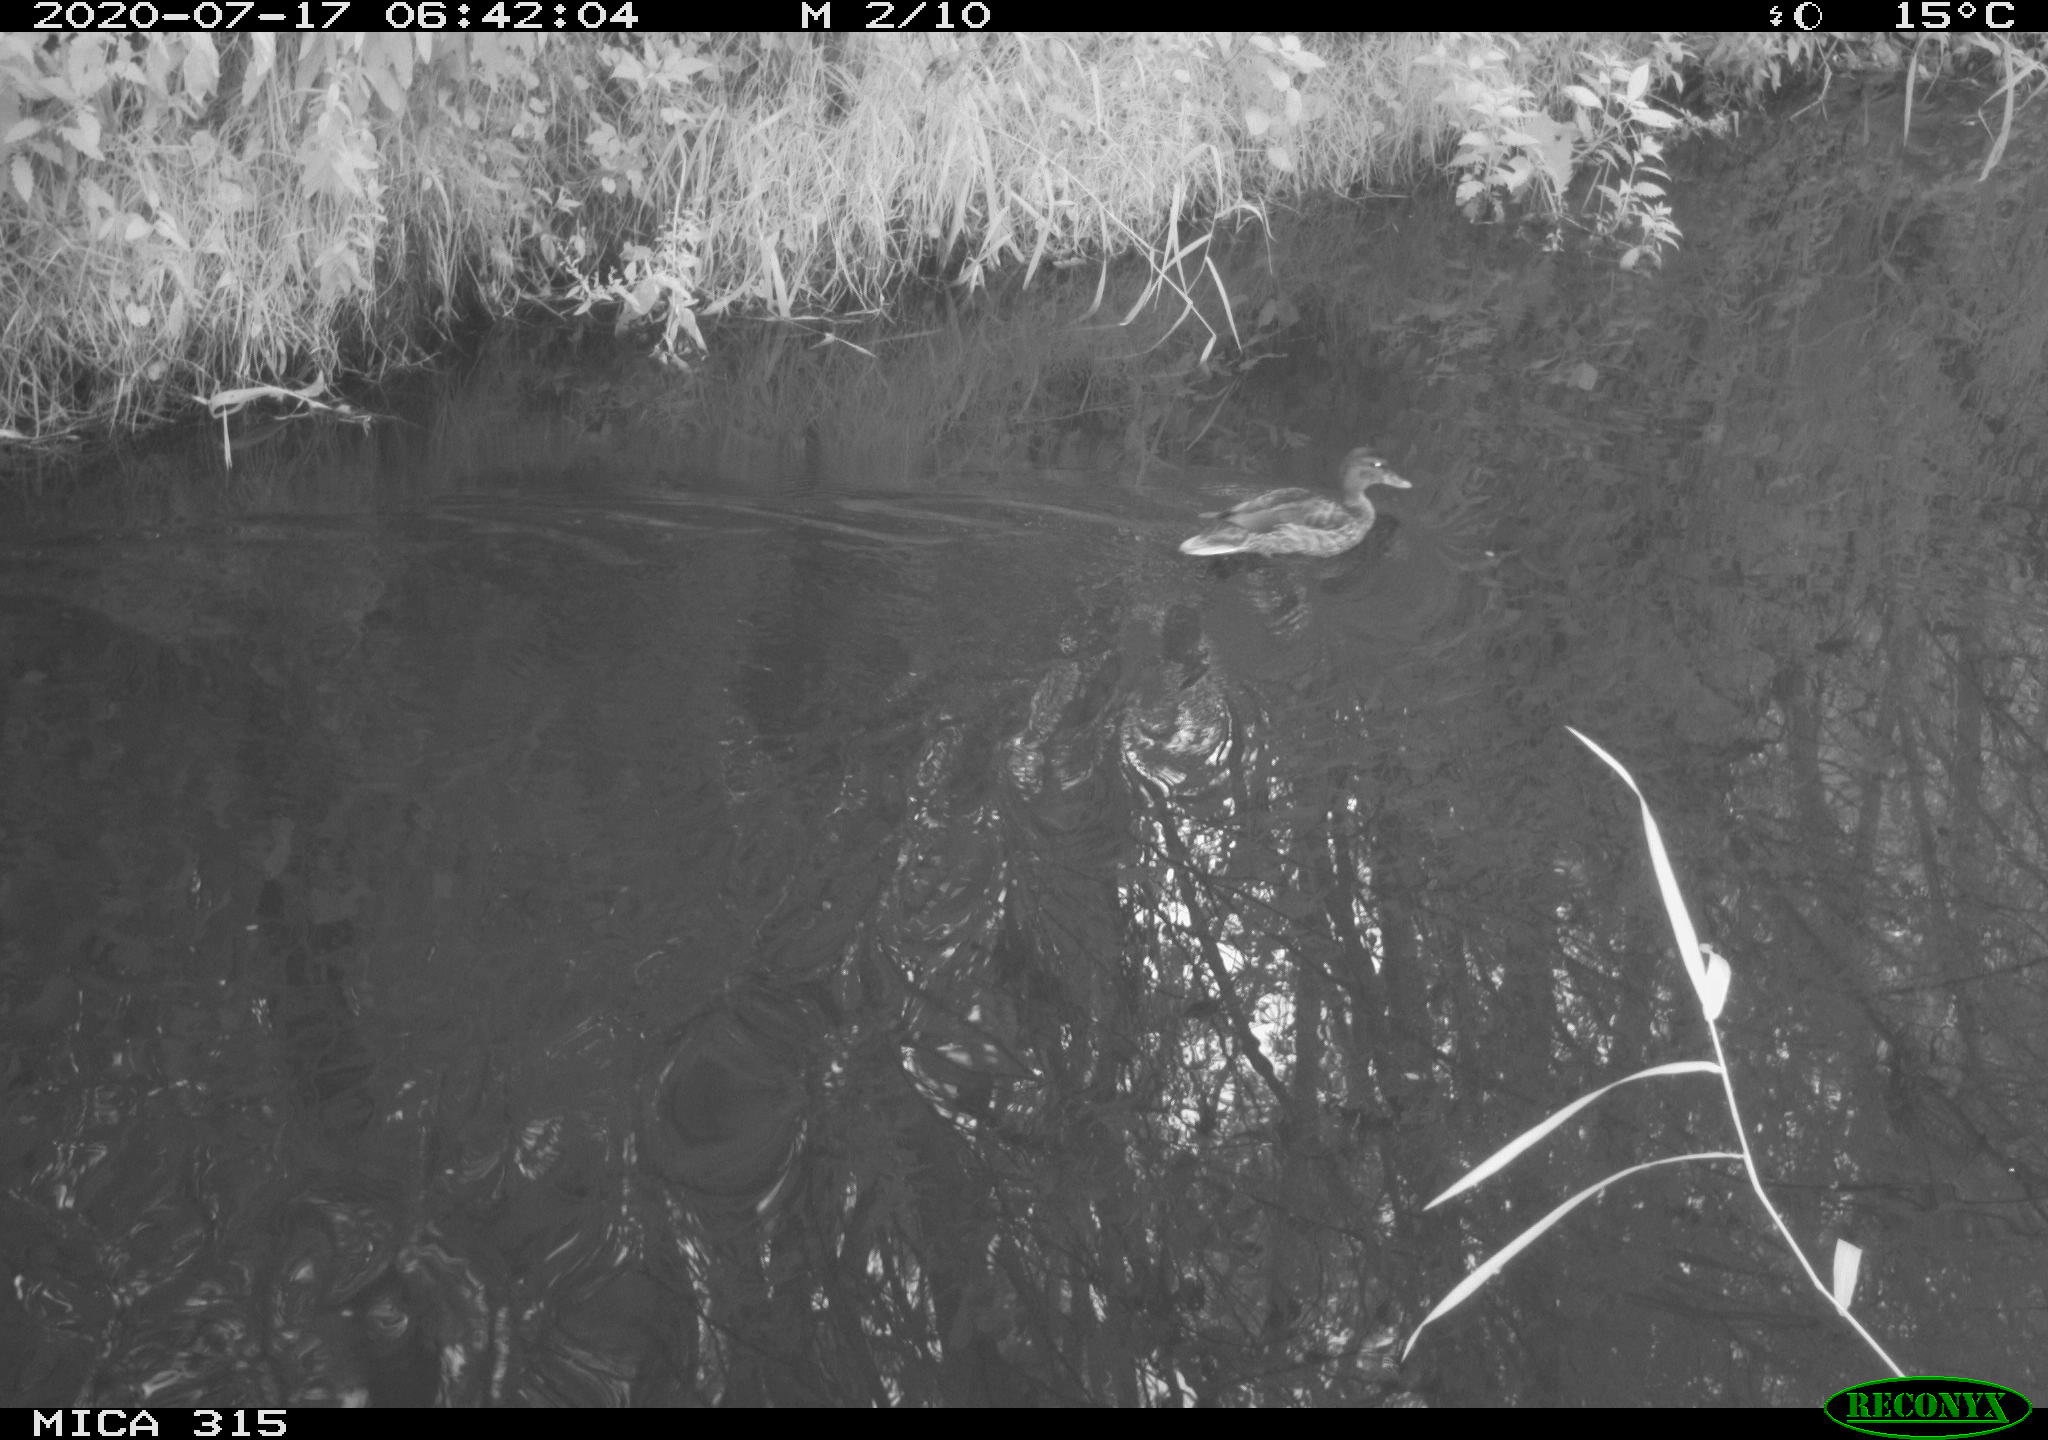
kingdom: Animalia
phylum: Chordata
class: Aves
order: Anseriformes
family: Anatidae
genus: Anas
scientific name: Anas platyrhynchos
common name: Mallard
